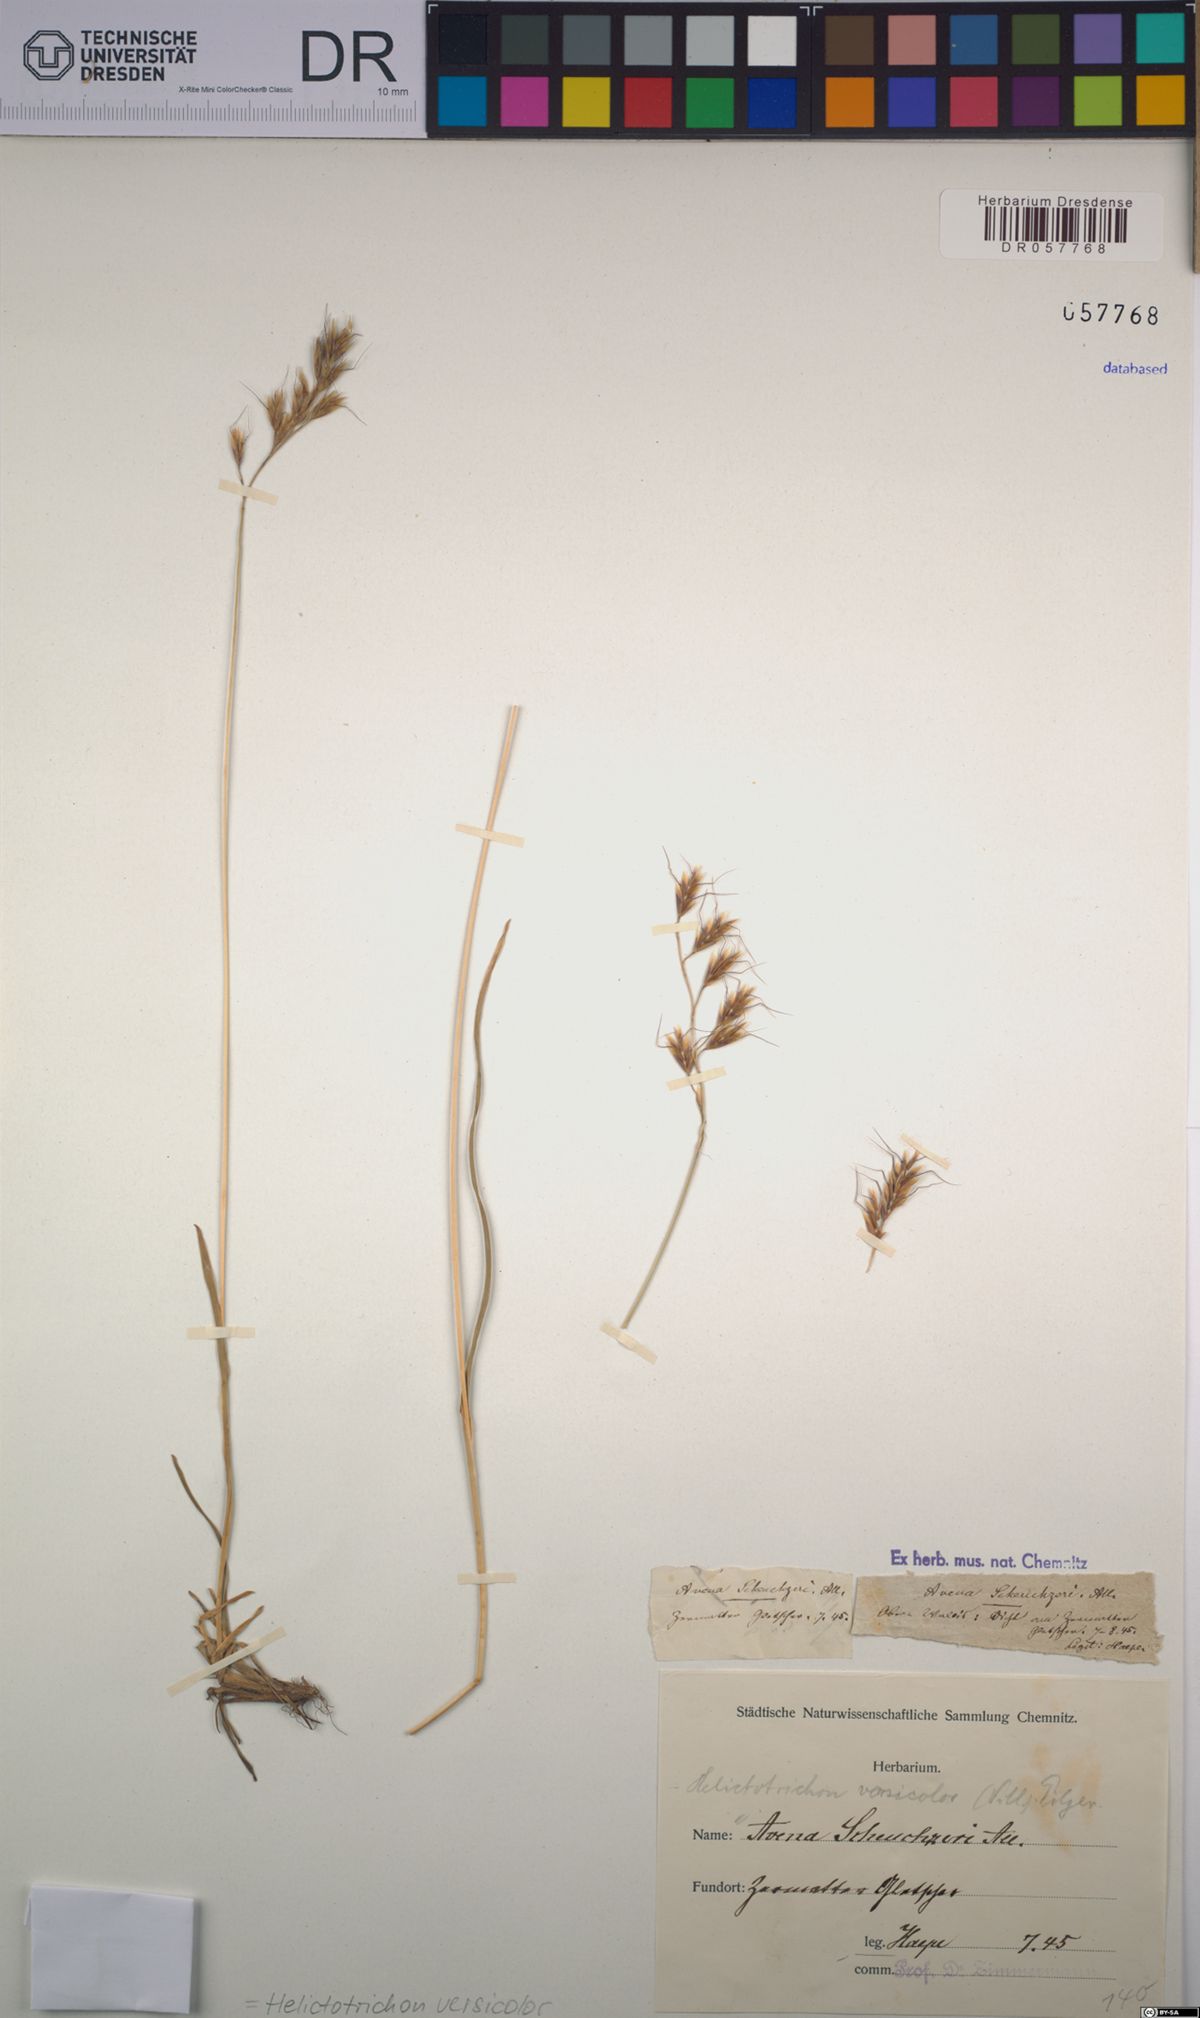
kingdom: Plantae
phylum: Tracheophyta
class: Liliopsida
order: Poales
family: Poaceae
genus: Helictochloa
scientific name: Helictochloa versicolor
